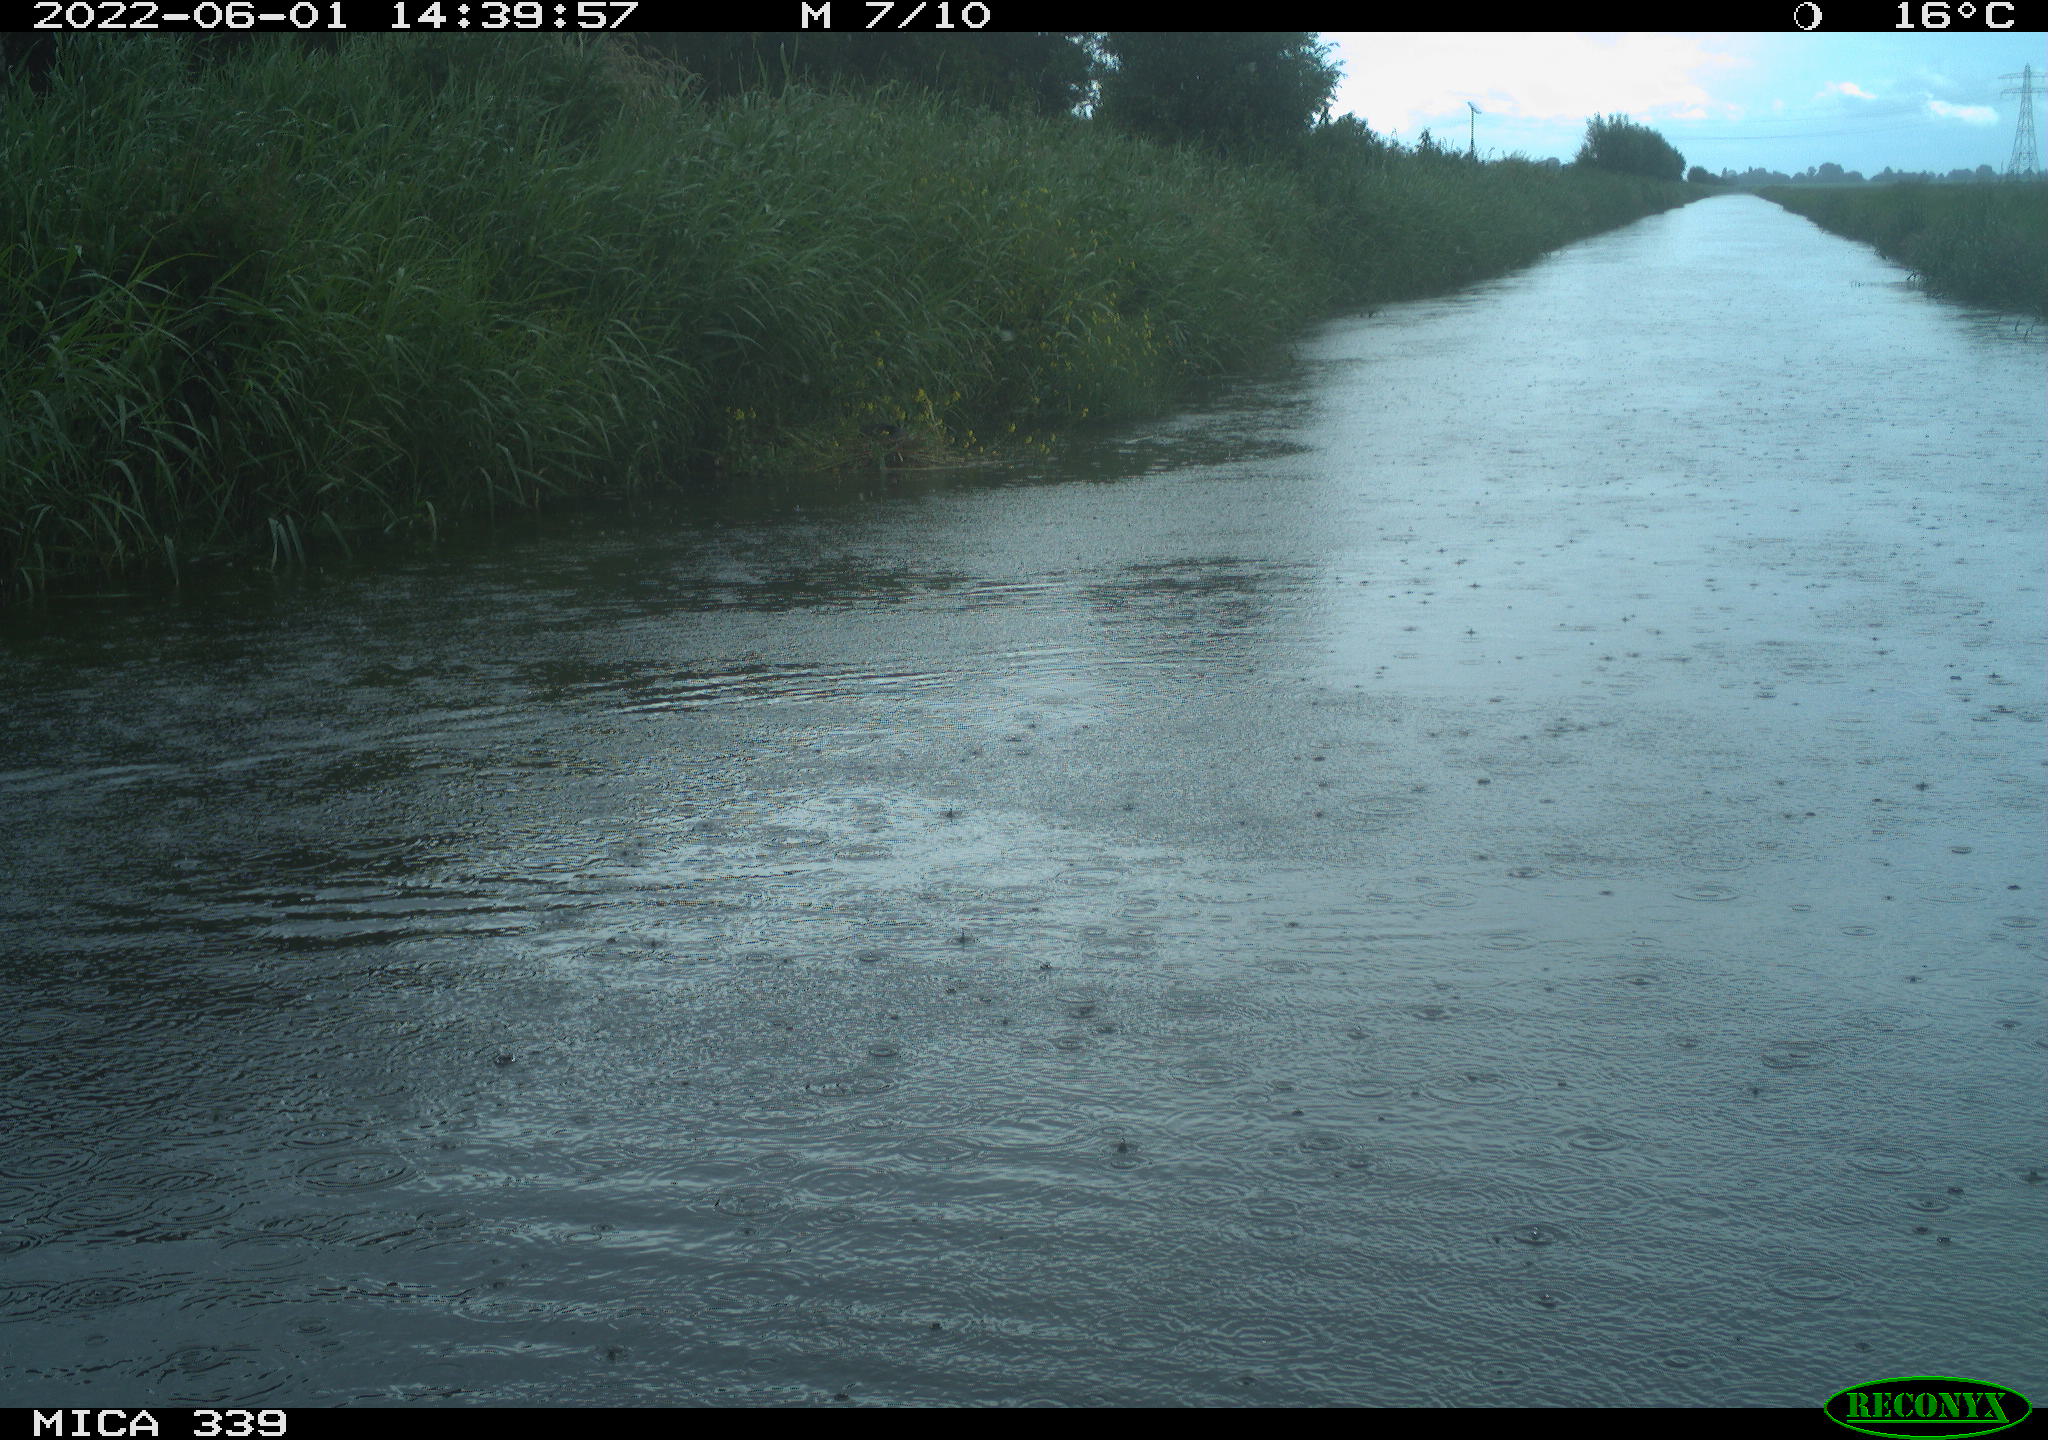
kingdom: Animalia
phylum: Chordata
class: Aves
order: Gruiformes
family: Rallidae
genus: Fulica
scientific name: Fulica atra
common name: Eurasian coot
